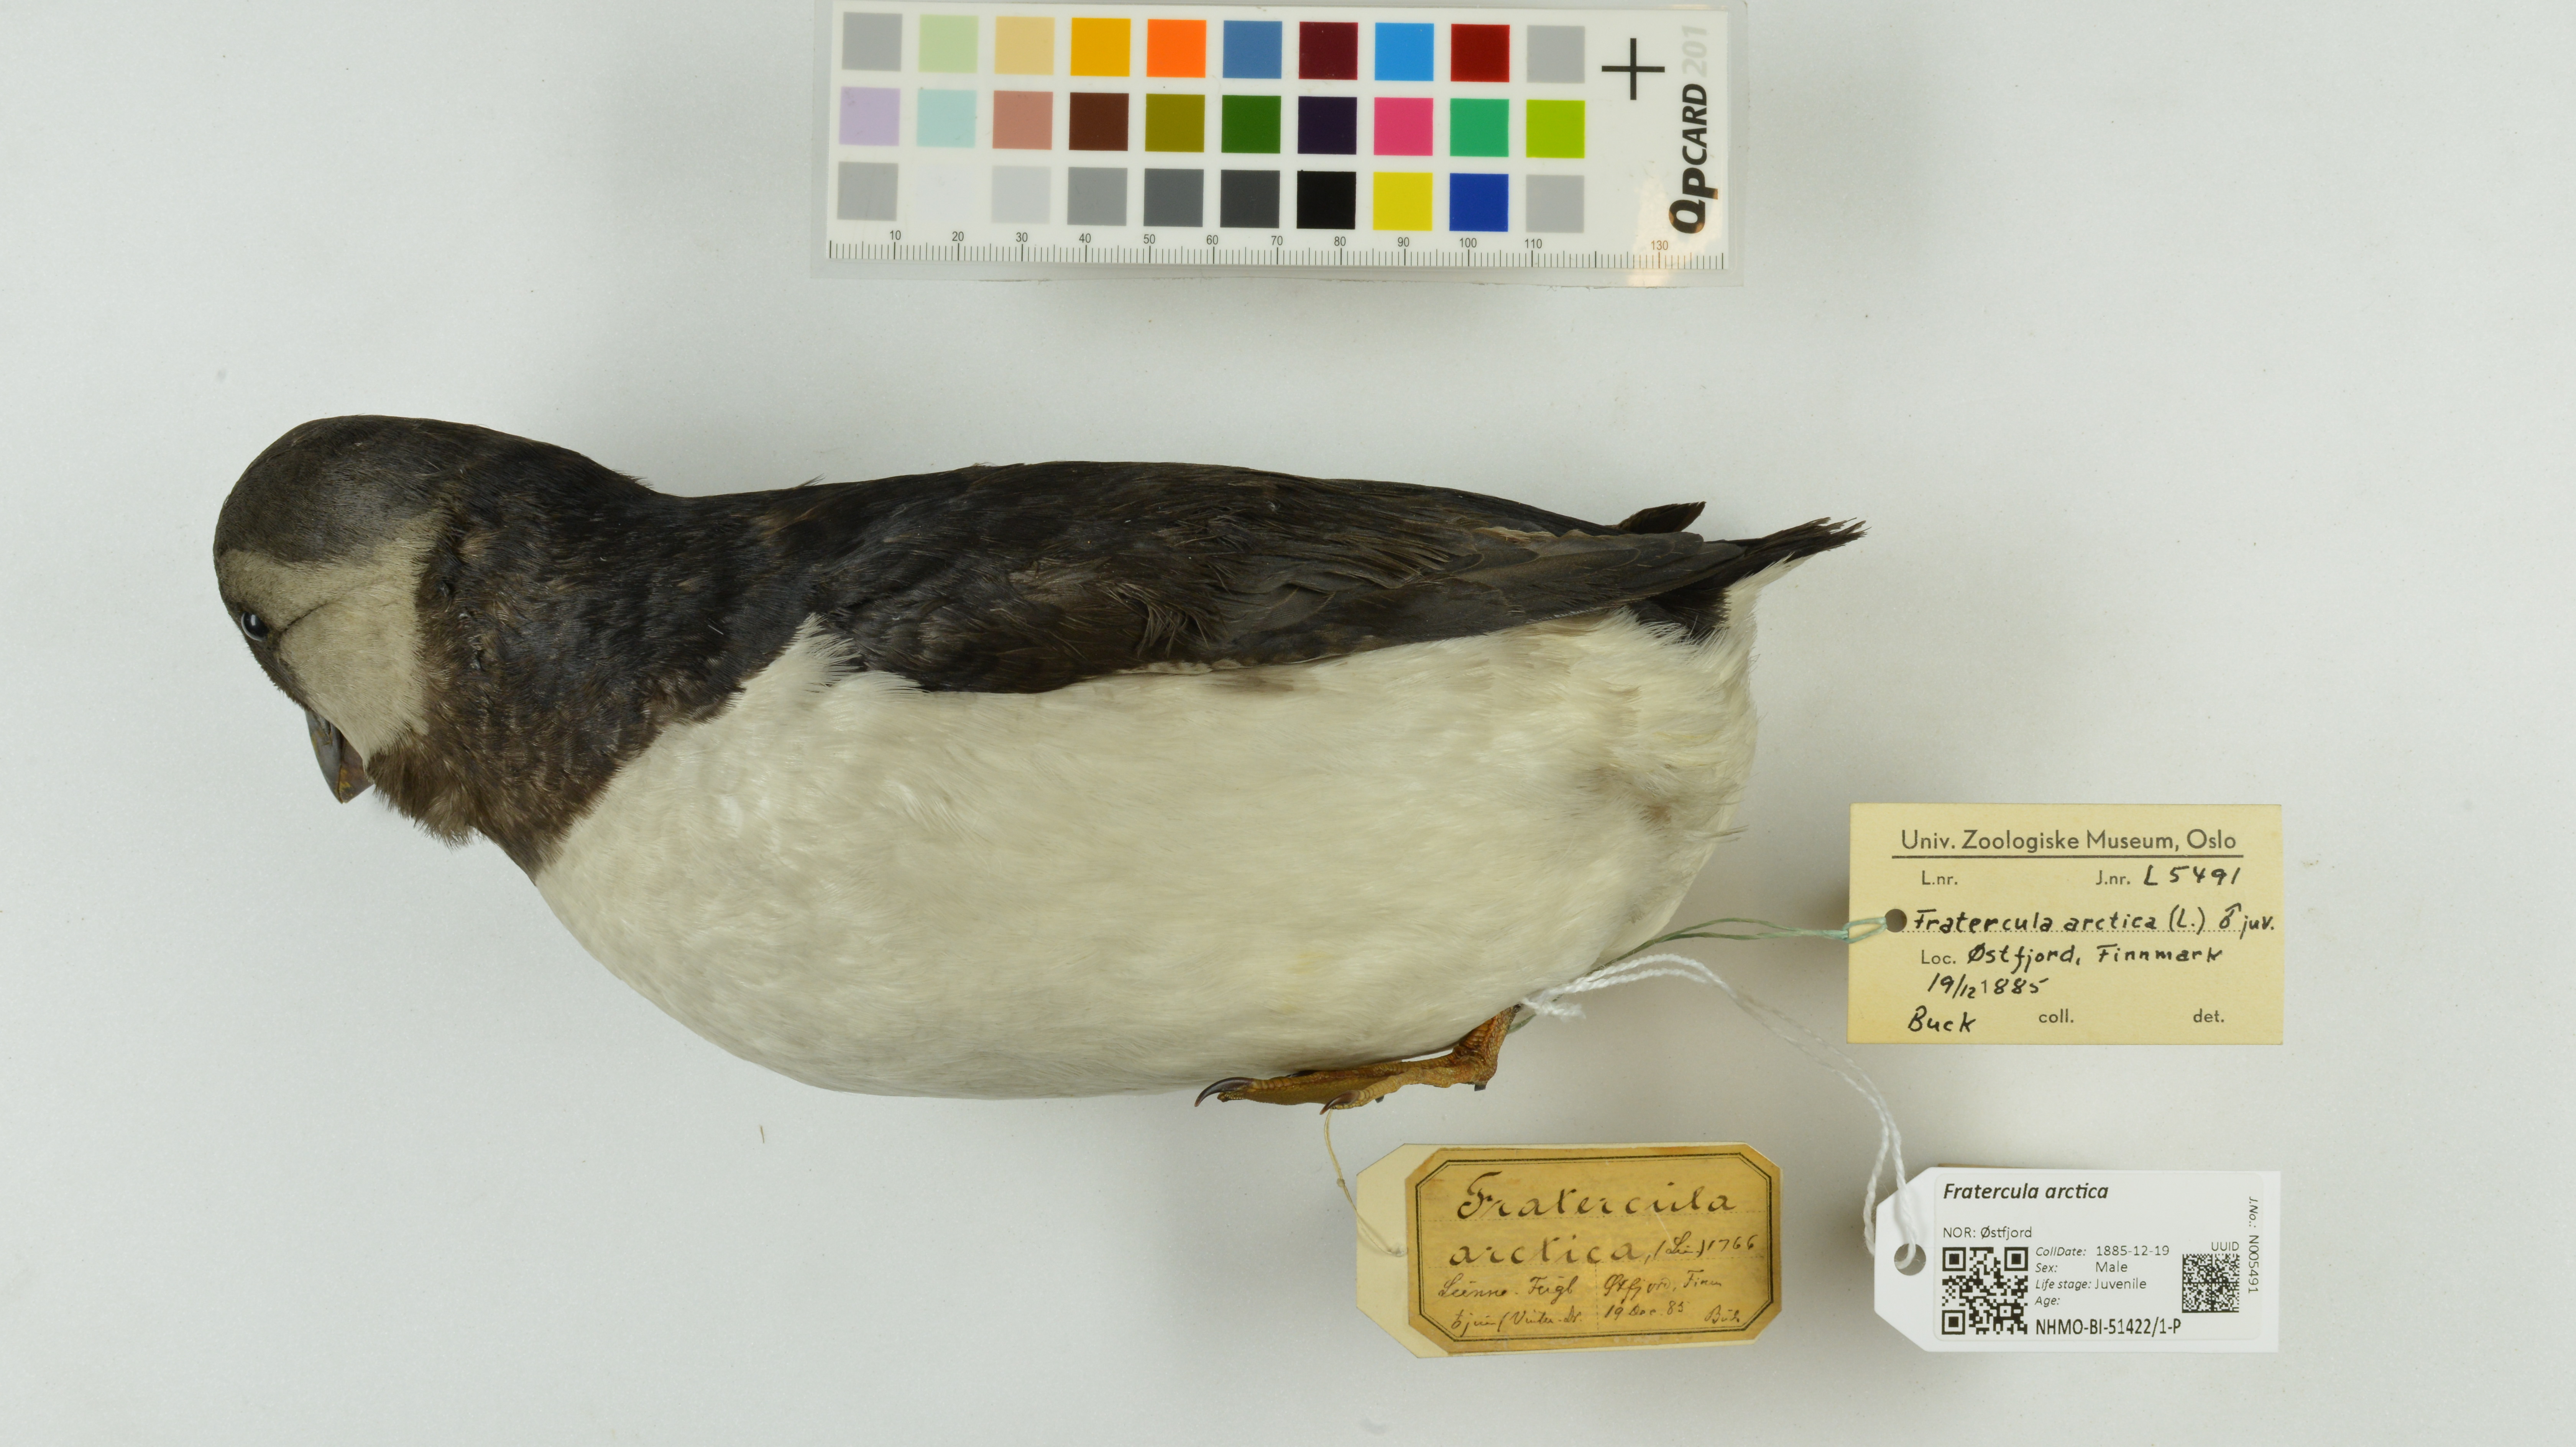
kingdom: Animalia
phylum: Chordata
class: Aves
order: Charadriiformes
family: Alcidae
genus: Fratercula
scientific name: Fratercula arctica
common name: Atlantic puffin
